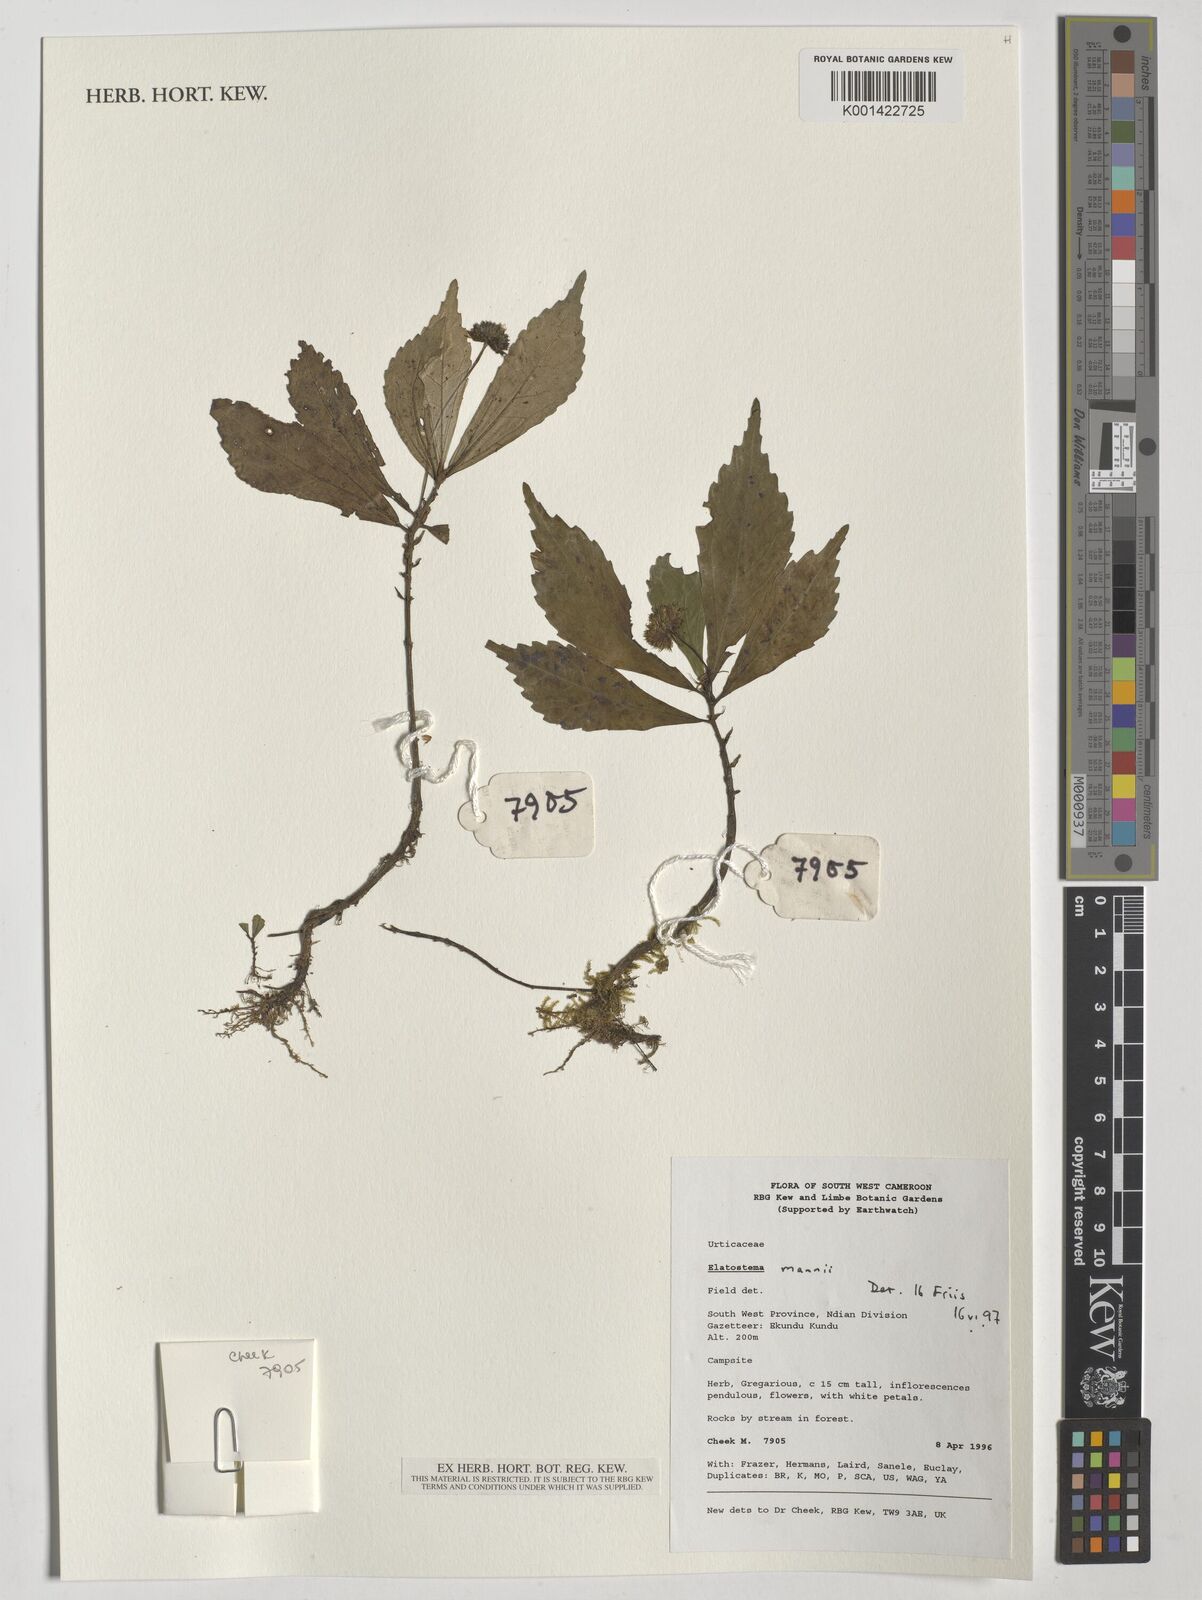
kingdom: Plantae
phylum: Tracheophyta
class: Magnoliopsida
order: Rosales
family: Urticaceae
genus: Elatostema
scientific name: Elatostema mannii
